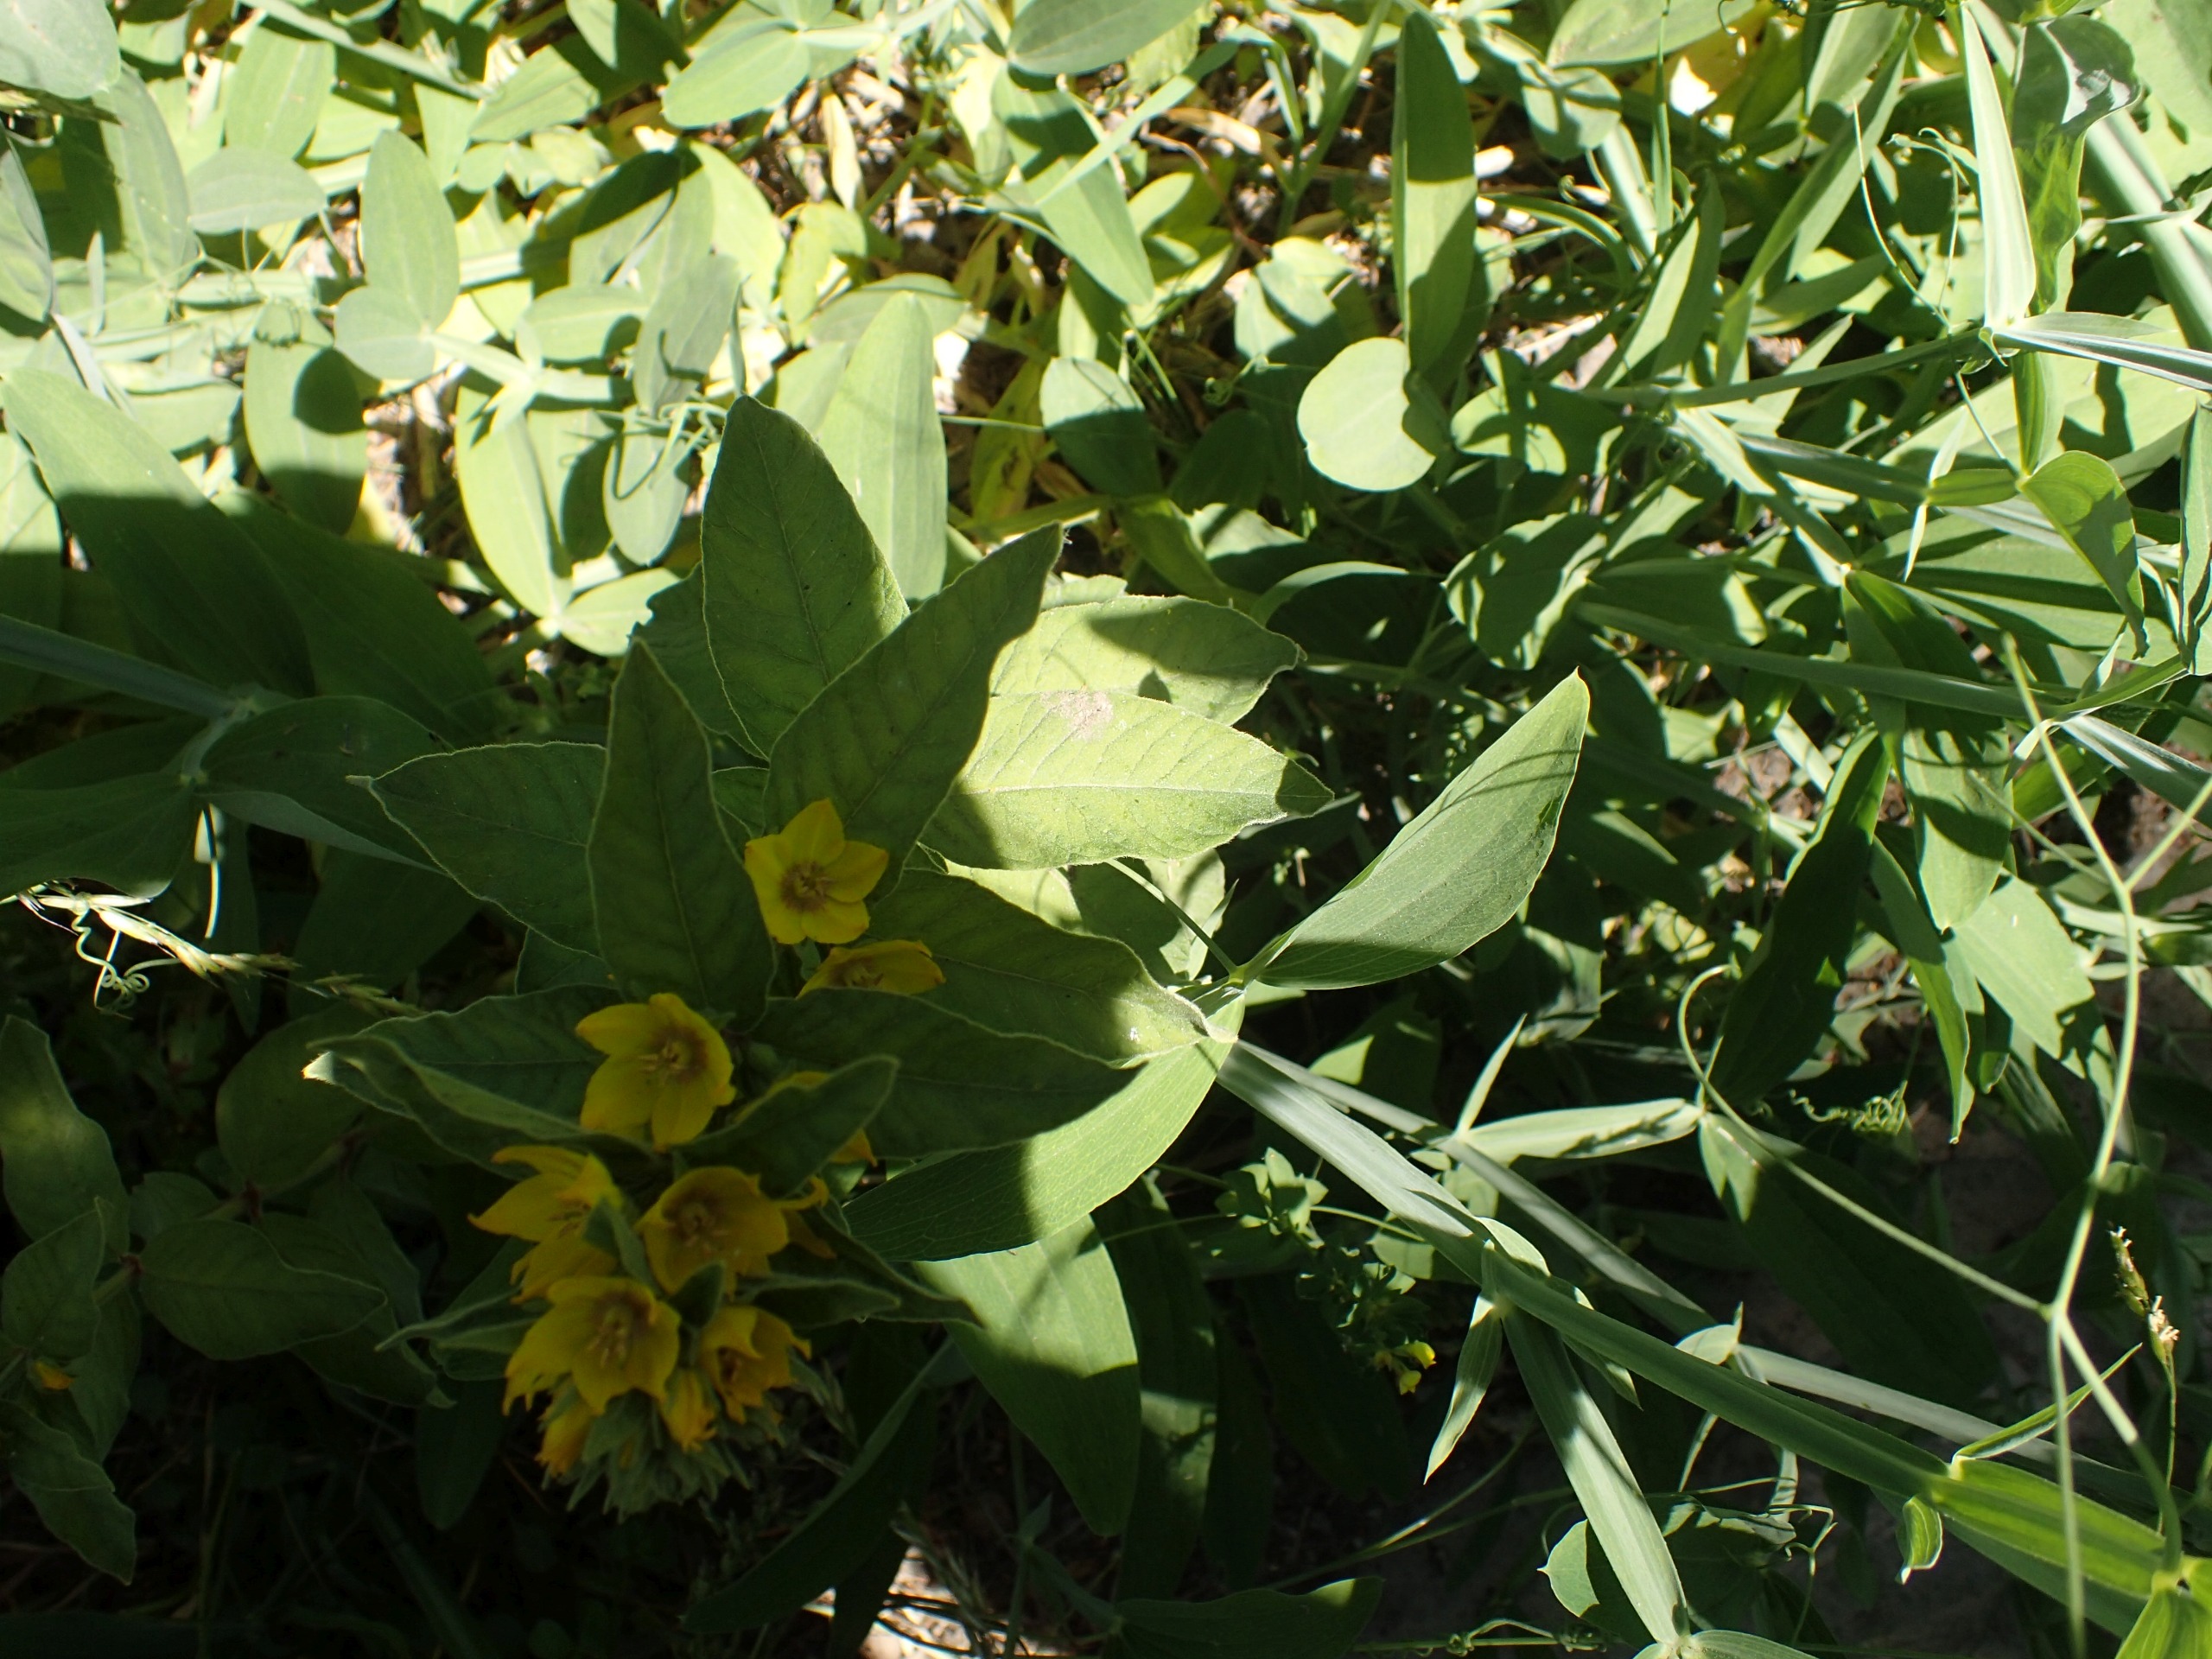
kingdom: Plantae
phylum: Tracheophyta
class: Magnoliopsida
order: Ericales
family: Primulaceae
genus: Lysimachia
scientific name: Lysimachia punctata
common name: Prikbladet fredløs
